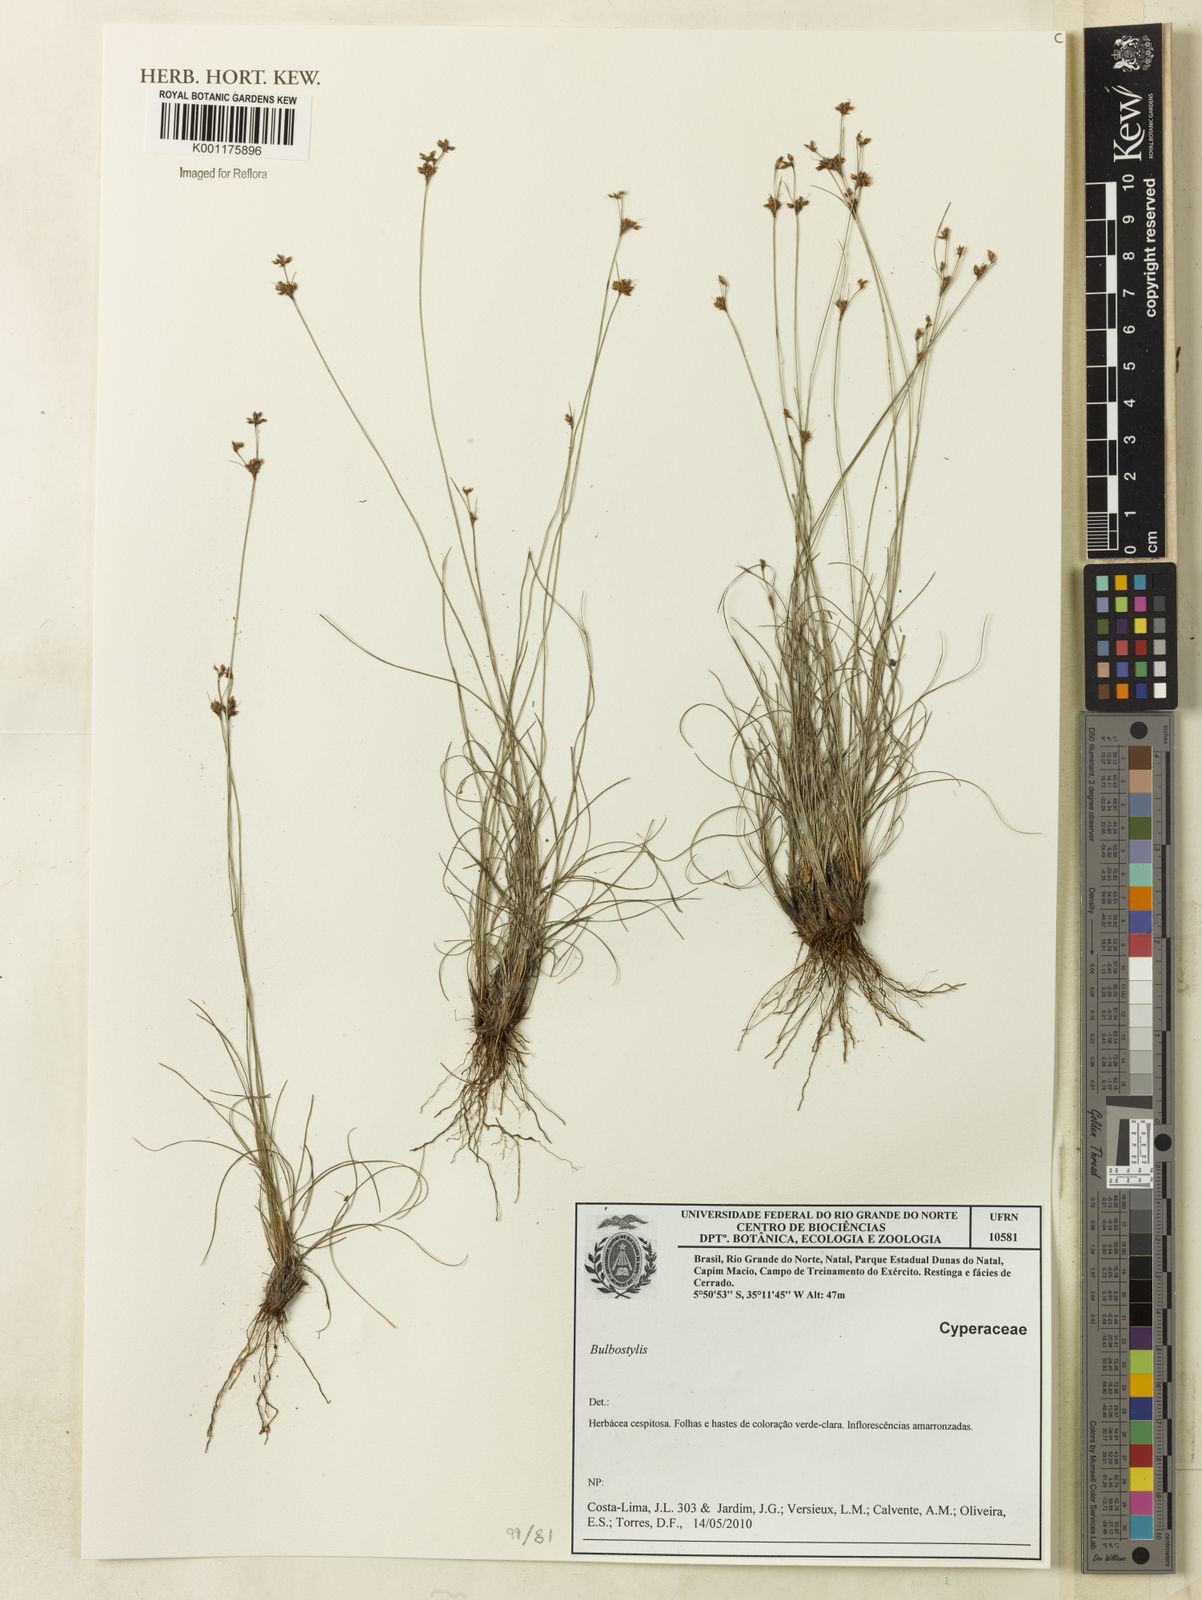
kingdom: Plantae
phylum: Tracheophyta
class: Liliopsida
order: Poales
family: Cyperaceae
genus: Bulbostylis
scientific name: Bulbostylis
